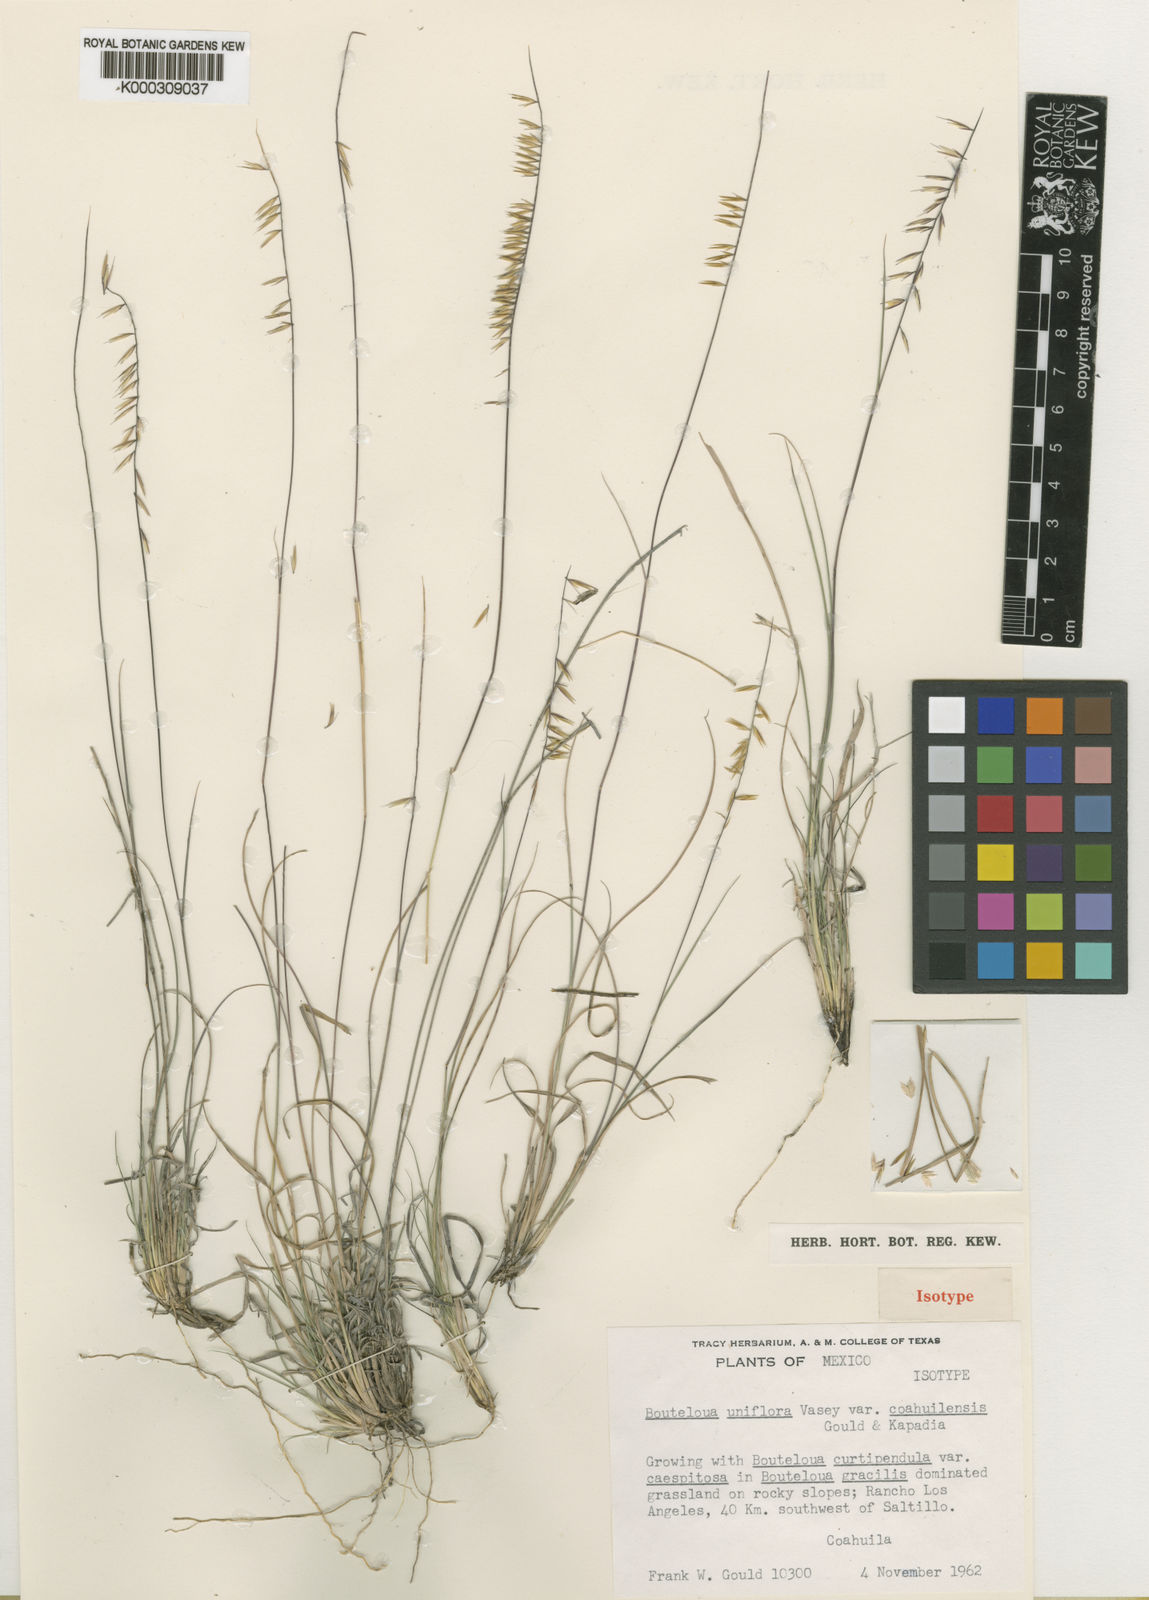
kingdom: Plantae
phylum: Tracheophyta
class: Liliopsida
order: Poales
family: Poaceae
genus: Bouteloua
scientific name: Bouteloua uniflora
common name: Neally's grama
